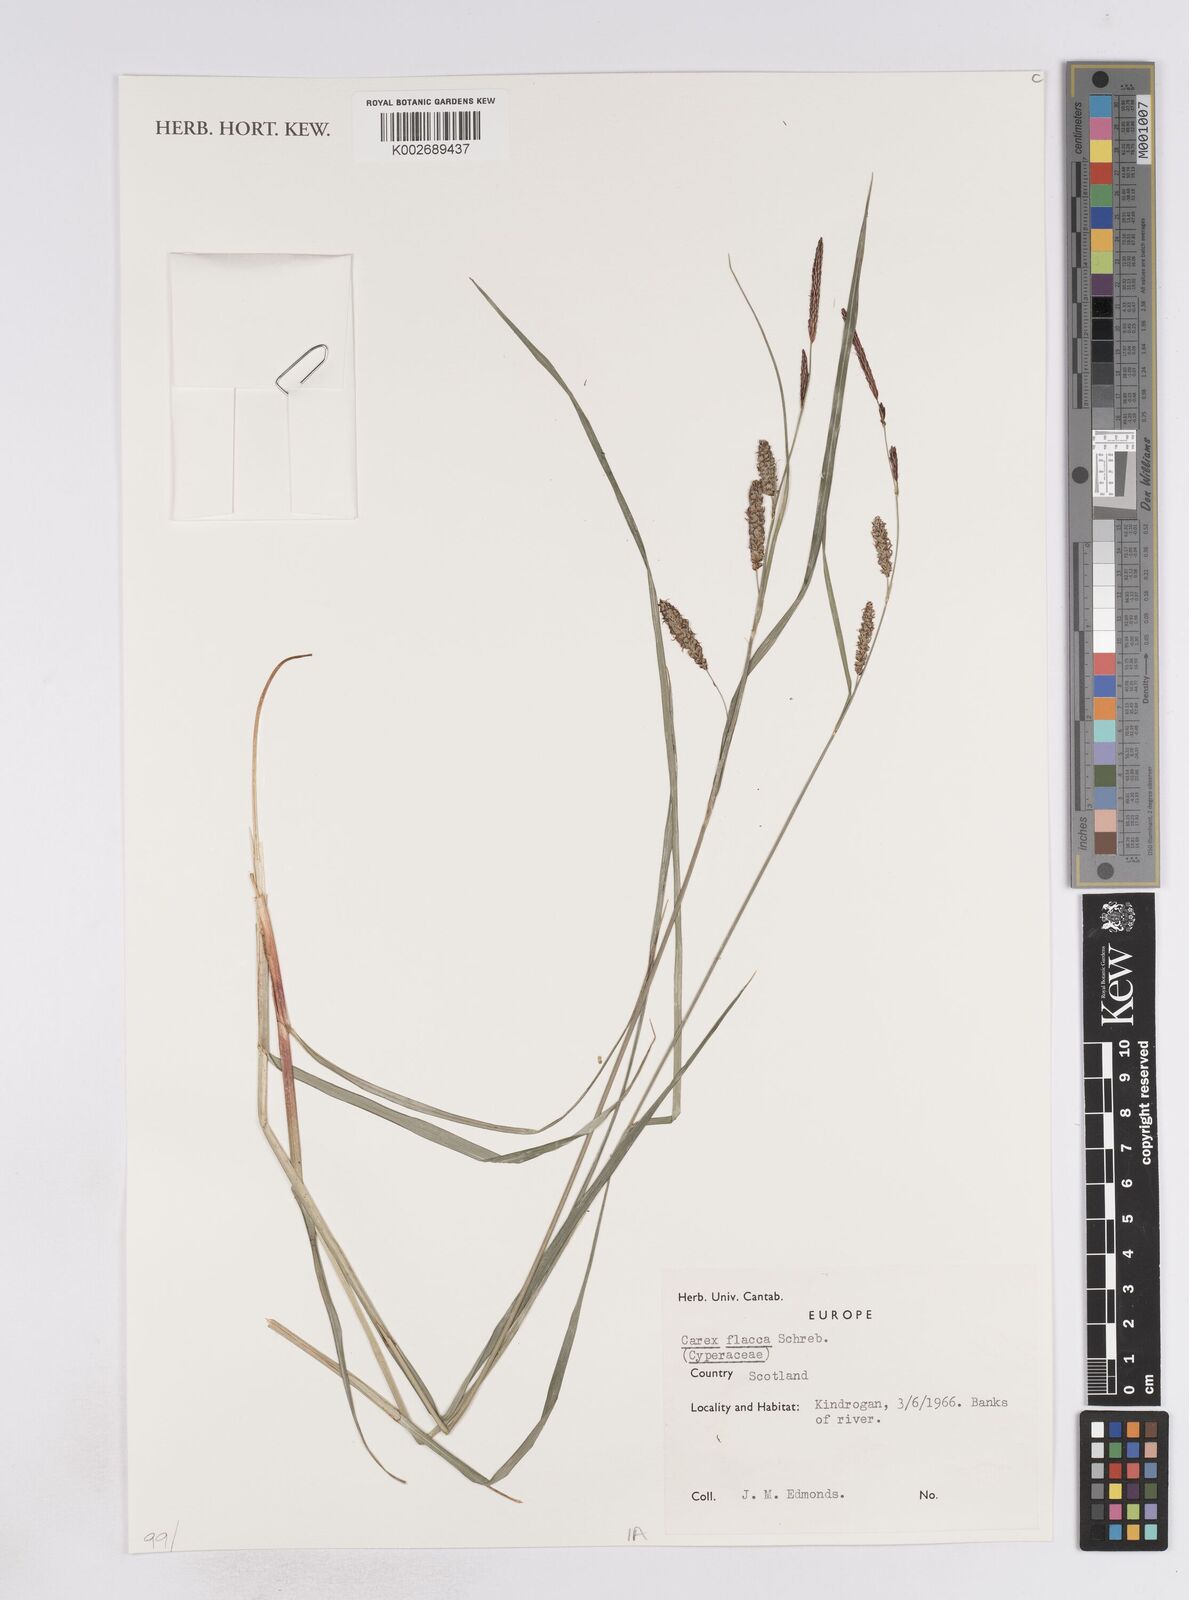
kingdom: Plantae
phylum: Tracheophyta
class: Liliopsida
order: Poales
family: Cyperaceae
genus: Carex
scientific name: Carex flacca
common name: Glaucous sedge
